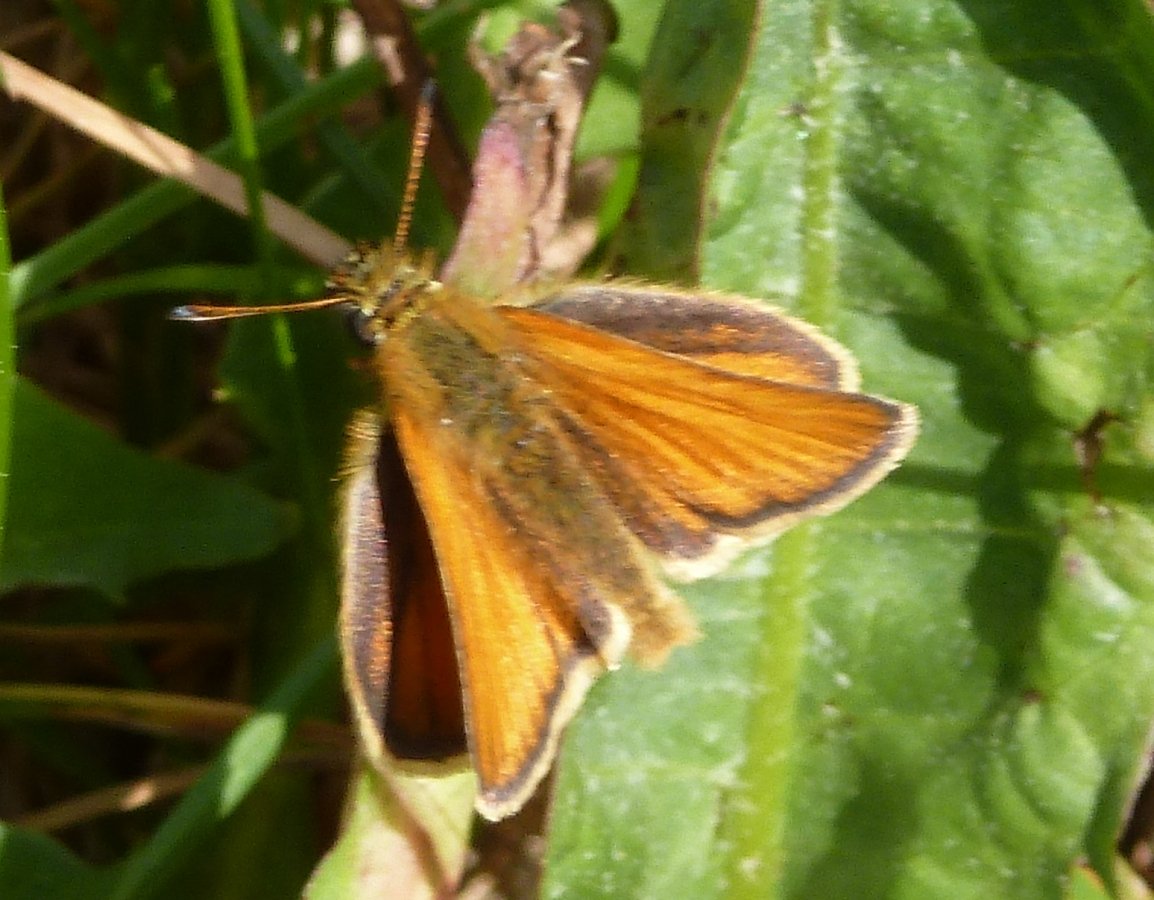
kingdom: Animalia
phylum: Arthropoda
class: Insecta
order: Lepidoptera
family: Hesperiidae
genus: Thymelicus
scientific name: Thymelicus lineola
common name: European Skipper
